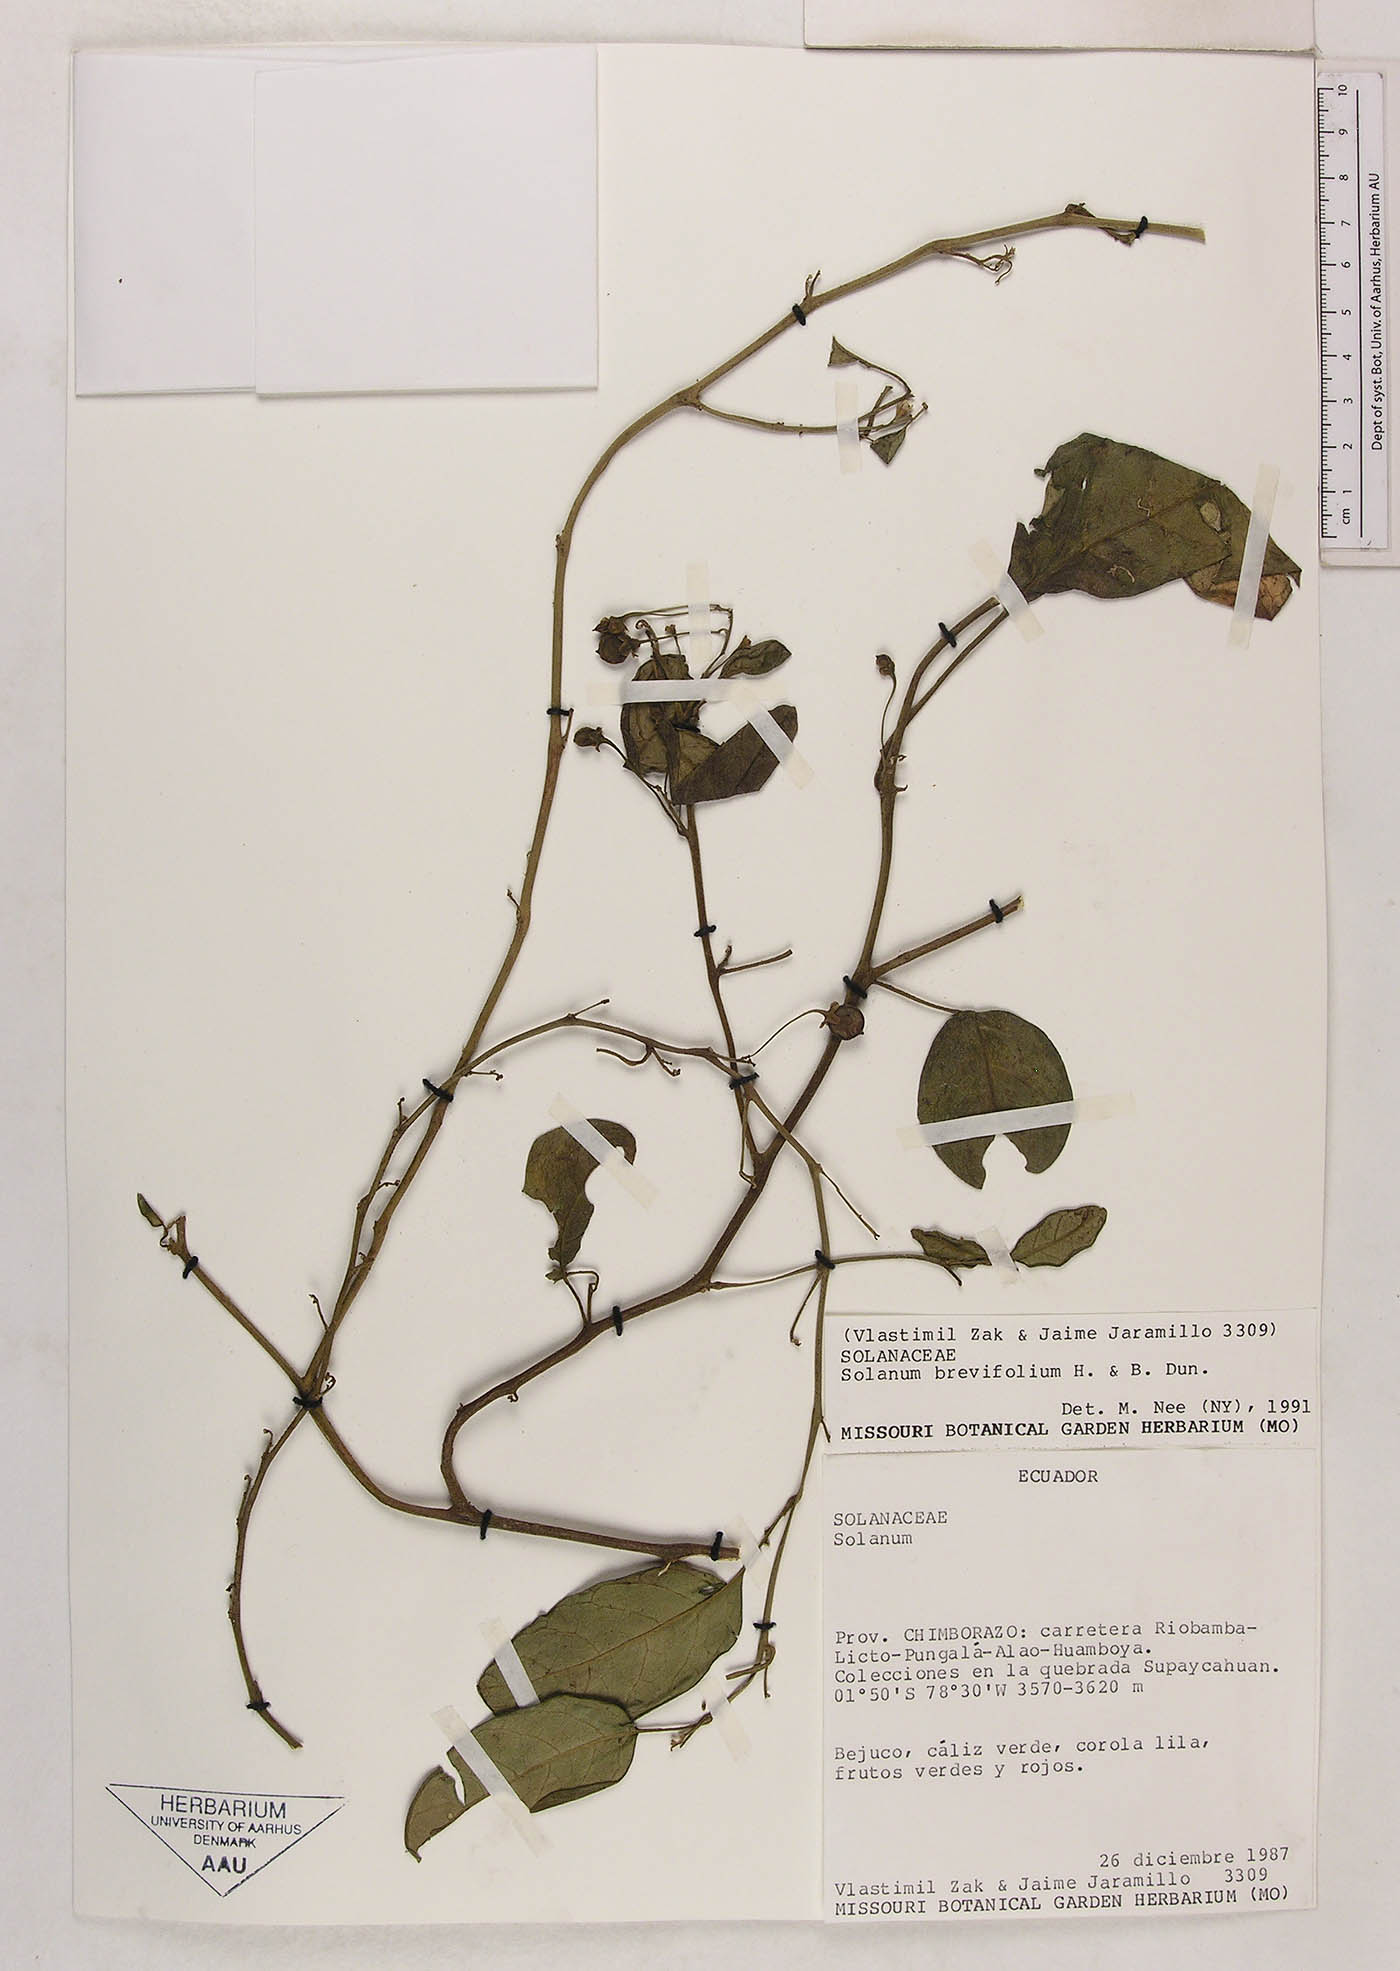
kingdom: Plantae
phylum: Tracheophyta
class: Magnoliopsida
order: Solanales
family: Solanaceae
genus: Solanum
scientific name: Solanum brevifolium
